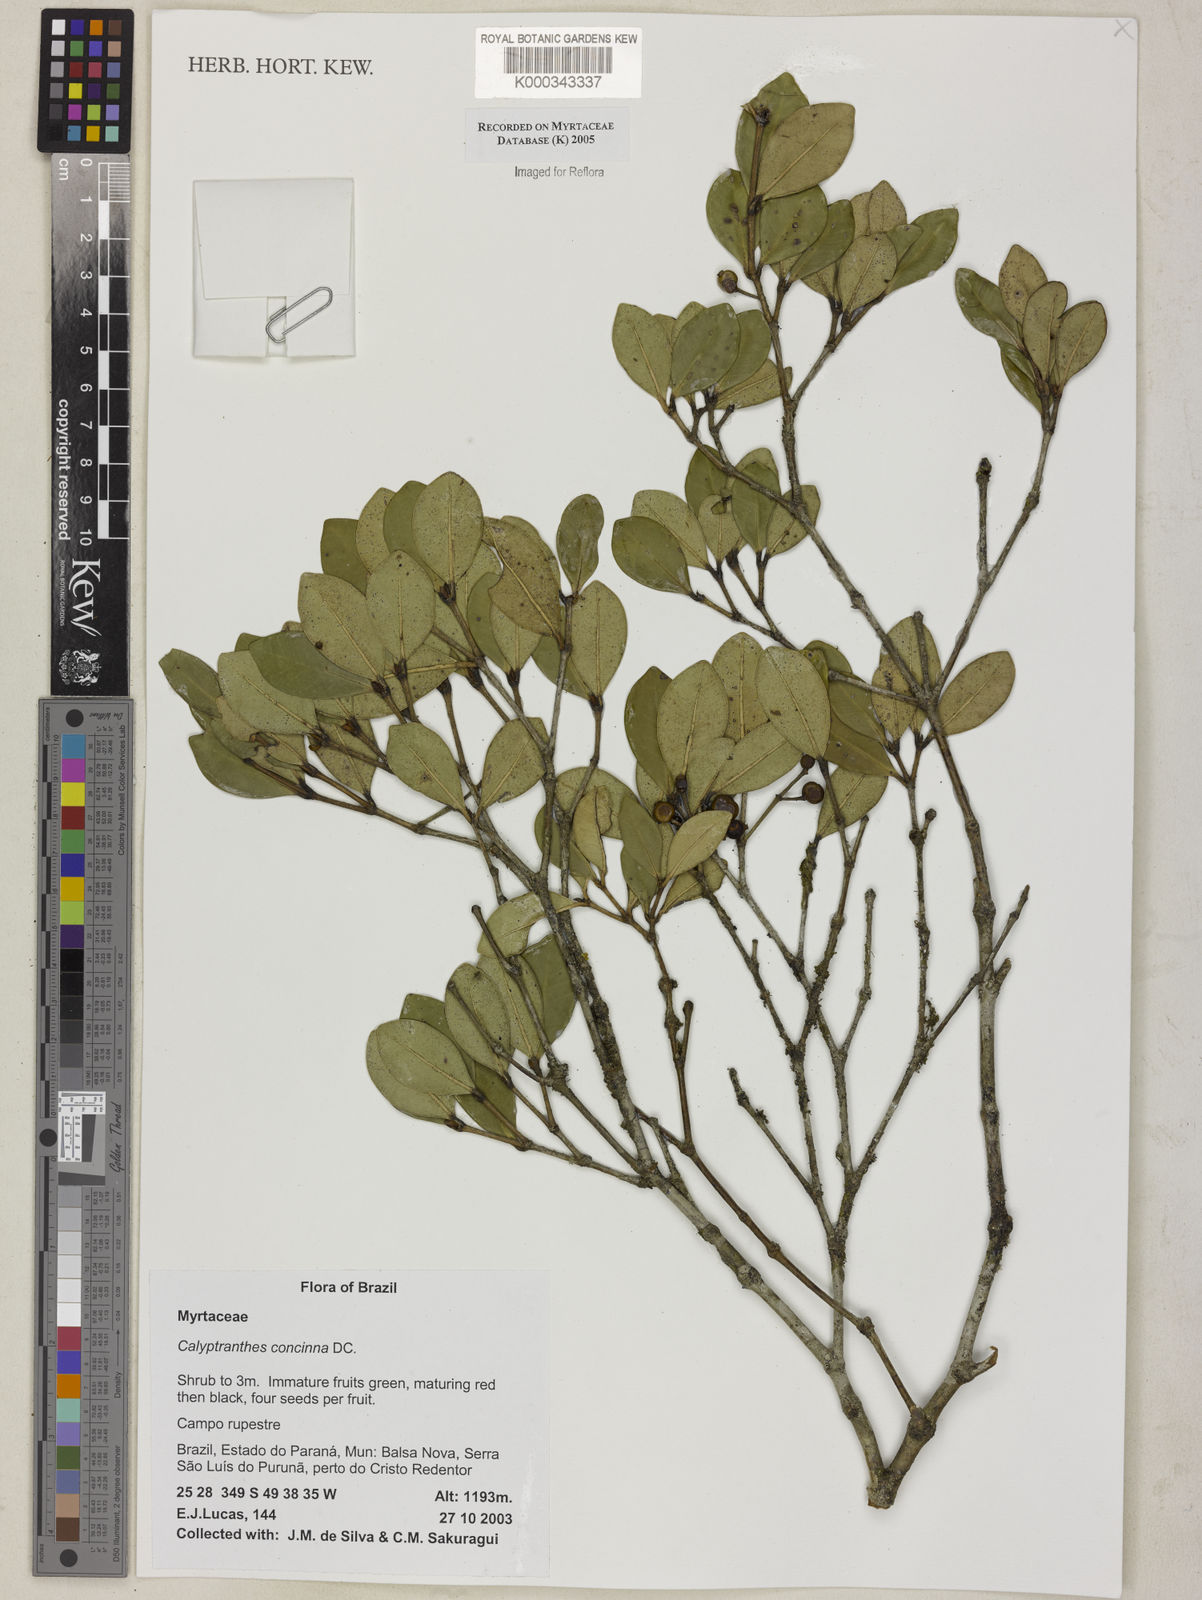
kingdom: Plantae
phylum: Tracheophyta
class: Magnoliopsida
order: Myrtales
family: Myrtaceae
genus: Myrcia
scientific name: Myrcia cruciflora
